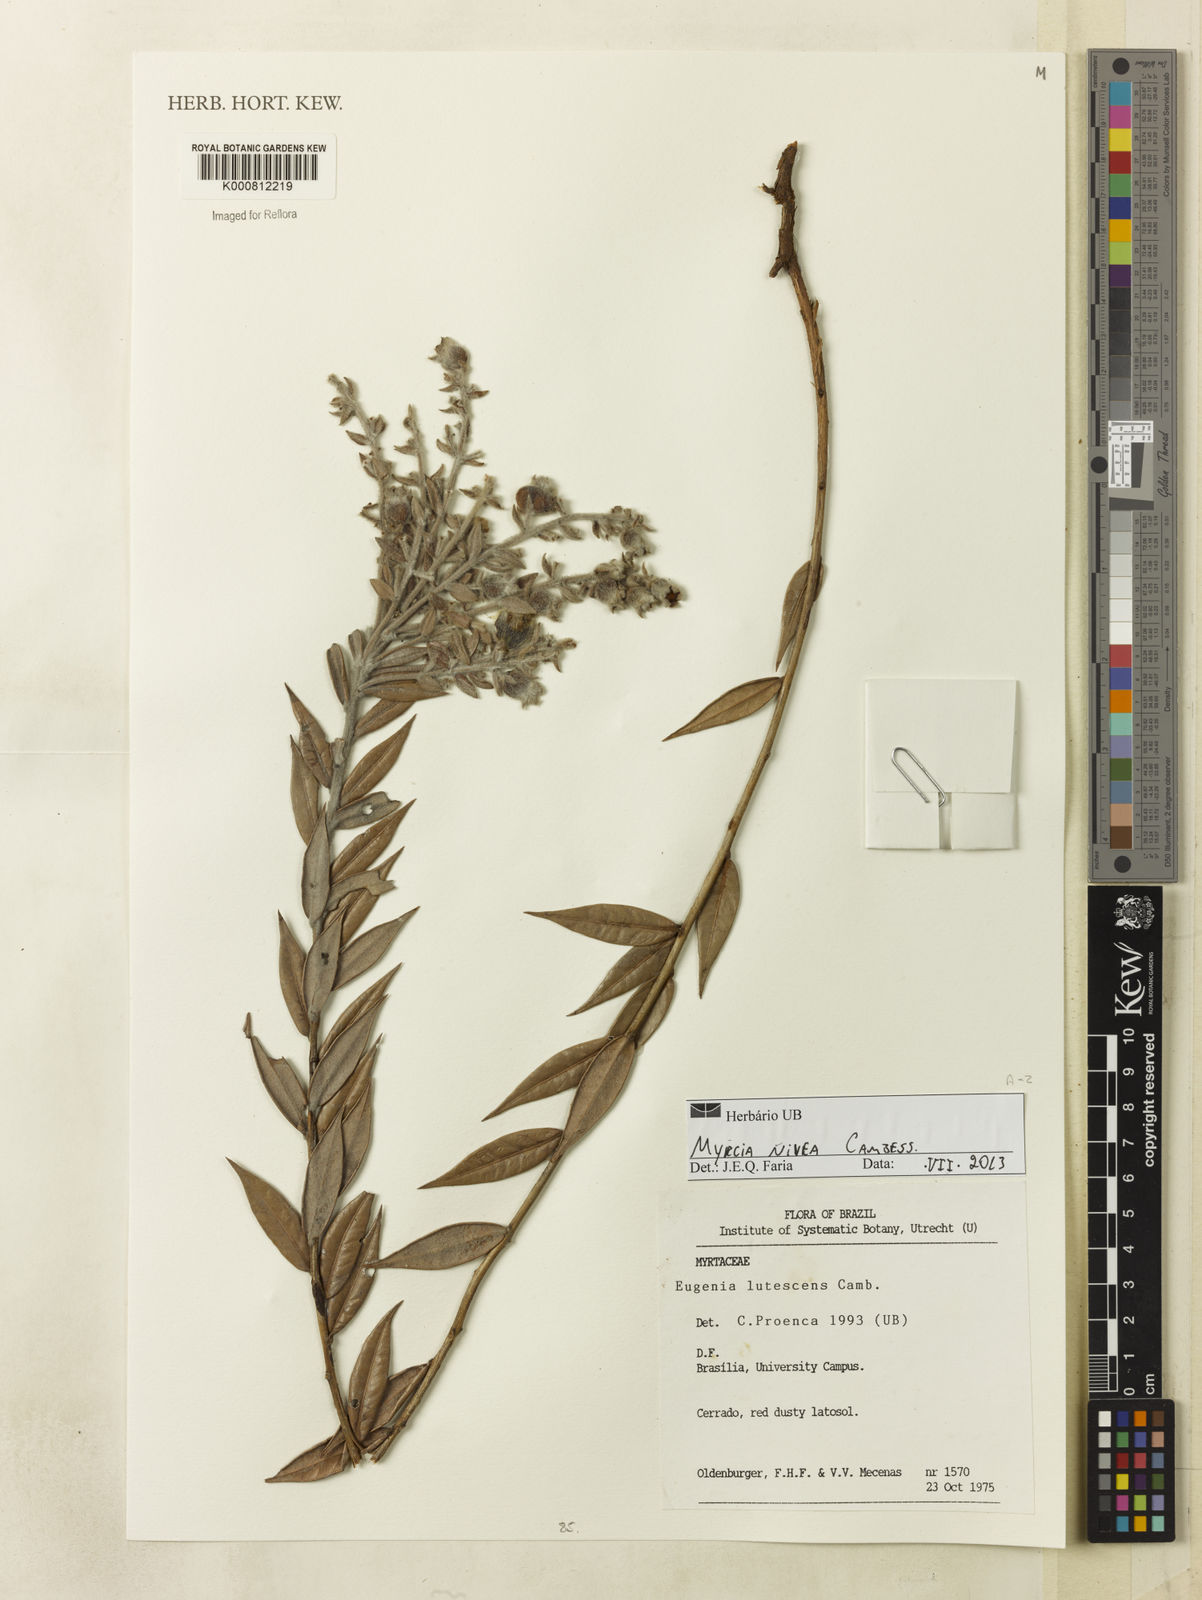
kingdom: Plantae
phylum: Tracheophyta
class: Magnoliopsida
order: Myrtales
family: Myrtaceae
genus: Myrcia
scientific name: Myrcia nivea
